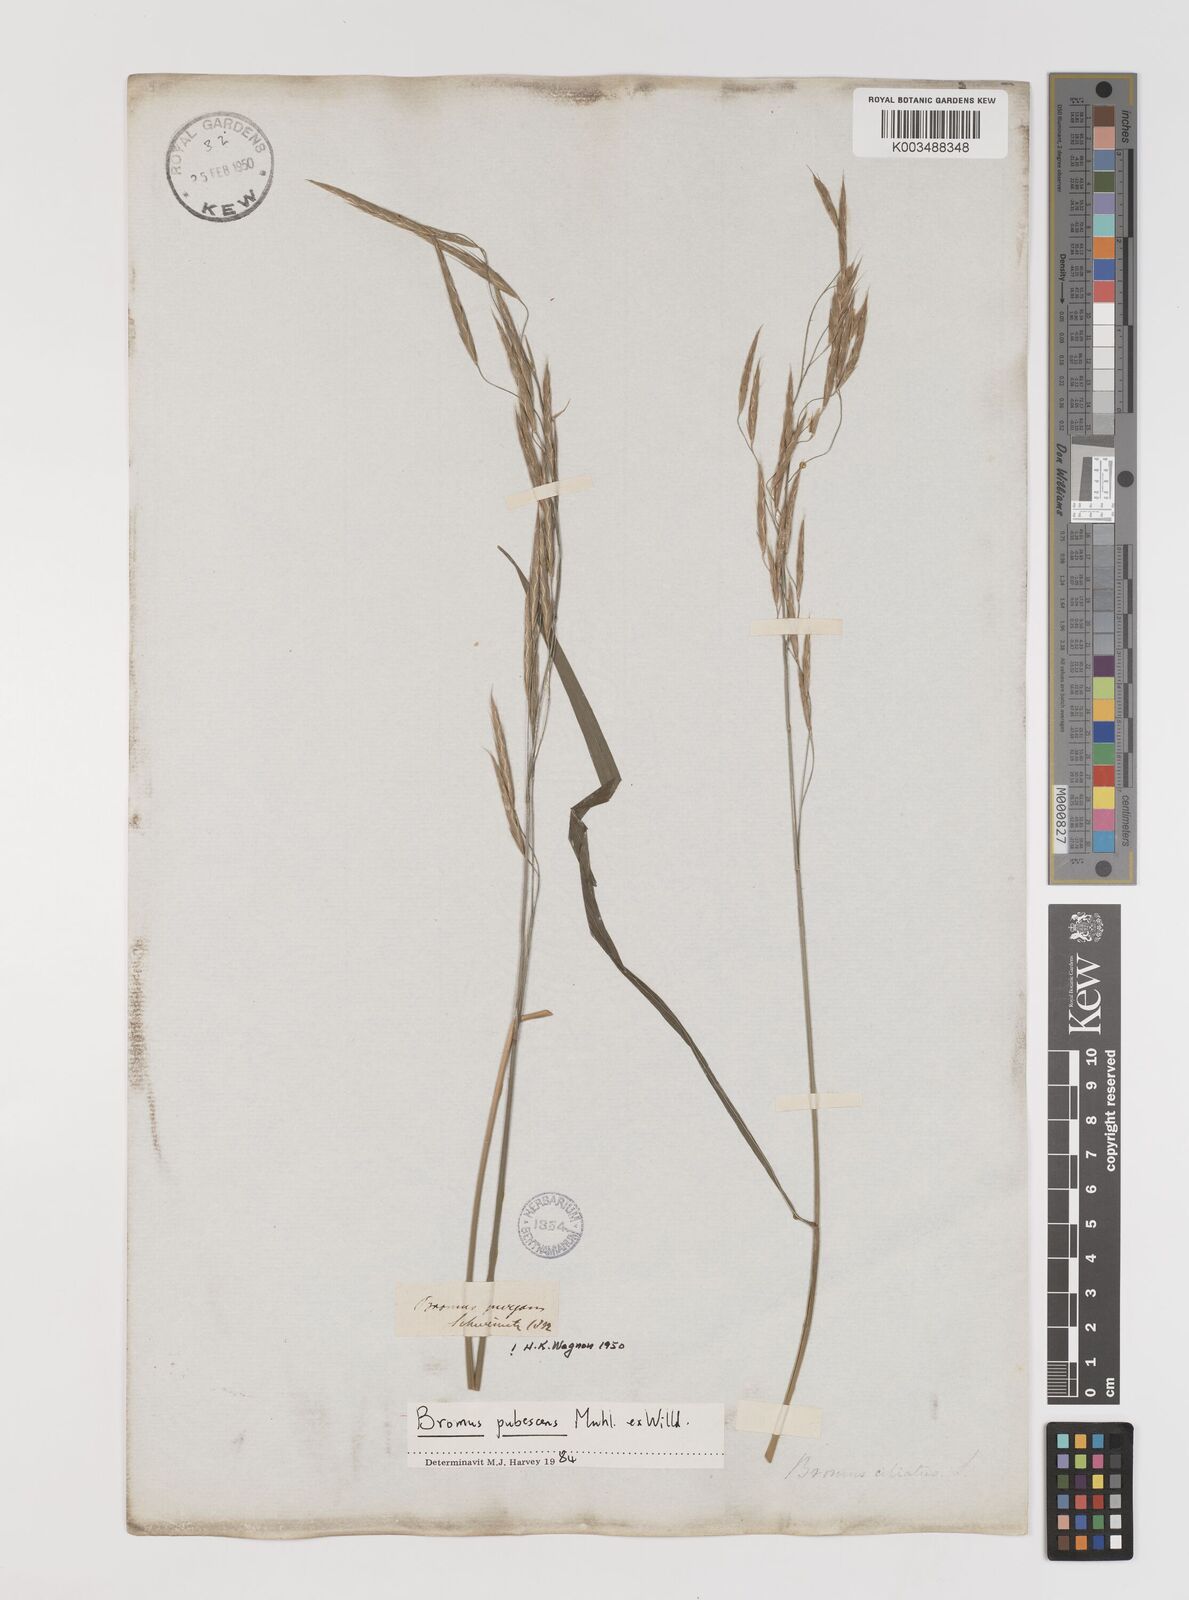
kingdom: Plantae
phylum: Tracheophyta
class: Liliopsida
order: Poales
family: Poaceae
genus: Bromus
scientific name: Bromus pubescens
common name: Hairy wood brome grass
